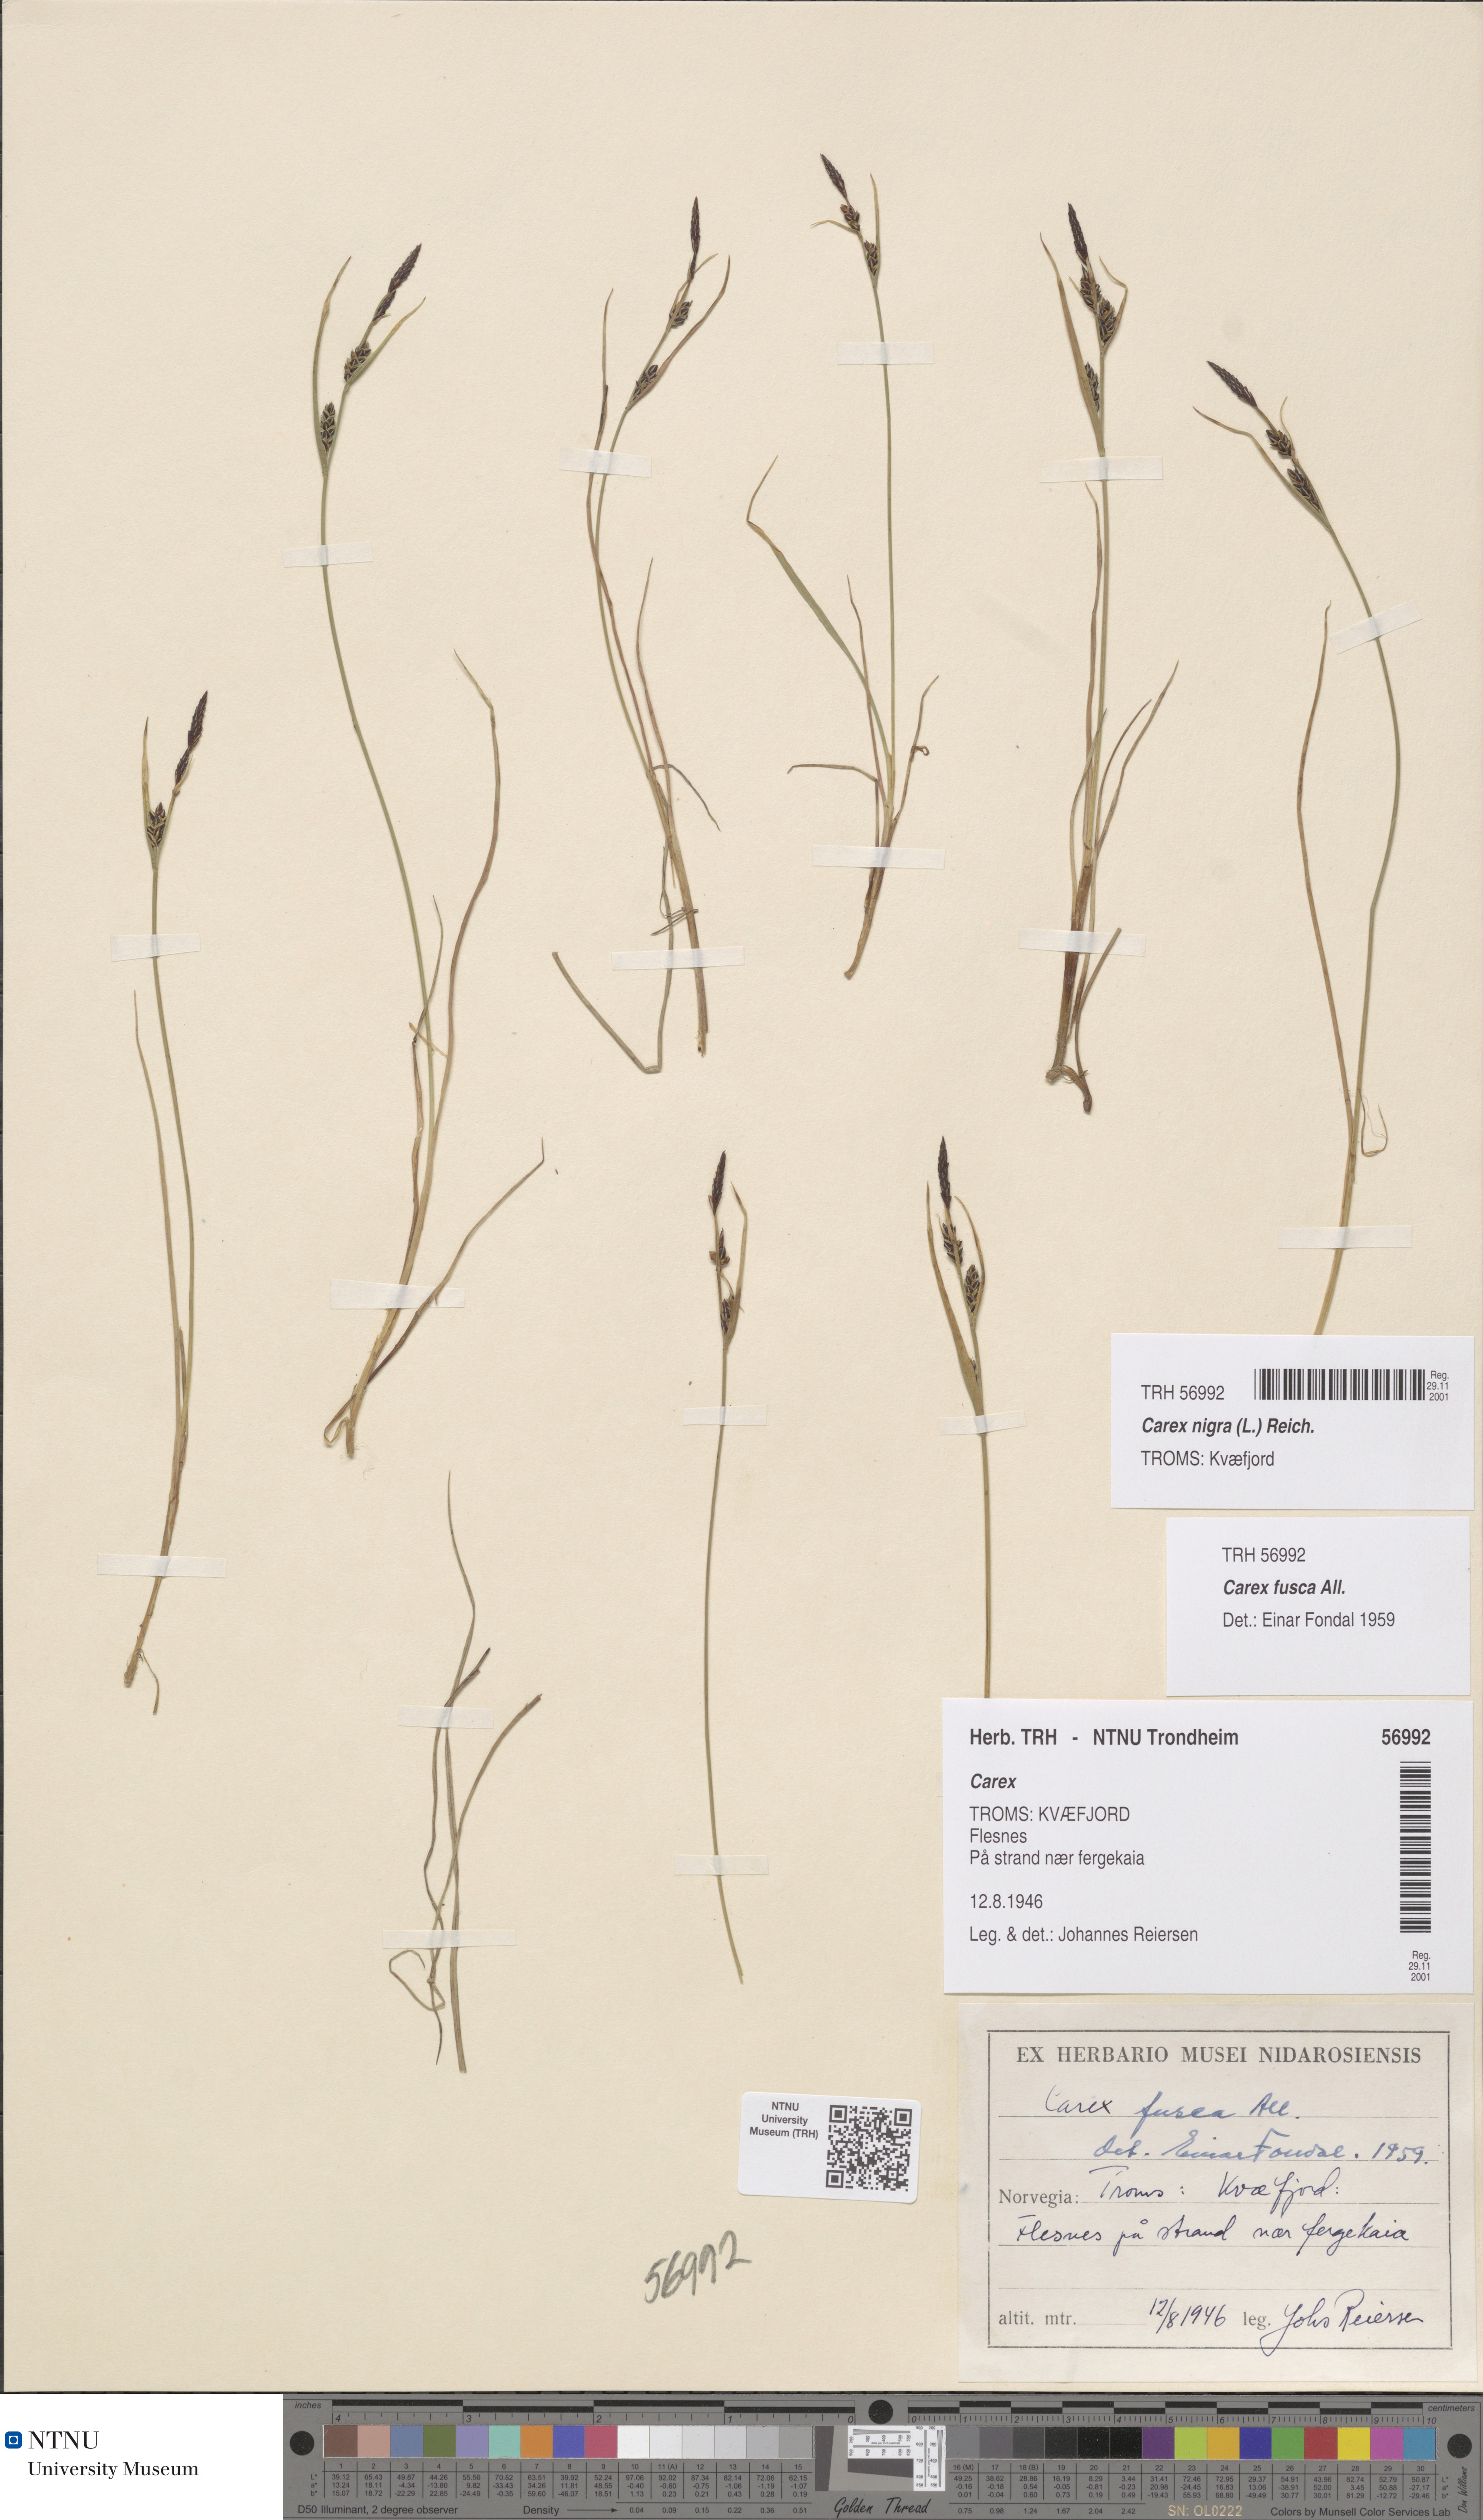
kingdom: Plantae
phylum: Tracheophyta
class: Liliopsida
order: Poales
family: Cyperaceae
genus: Carex
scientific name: Carex nigra
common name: Common sedge
